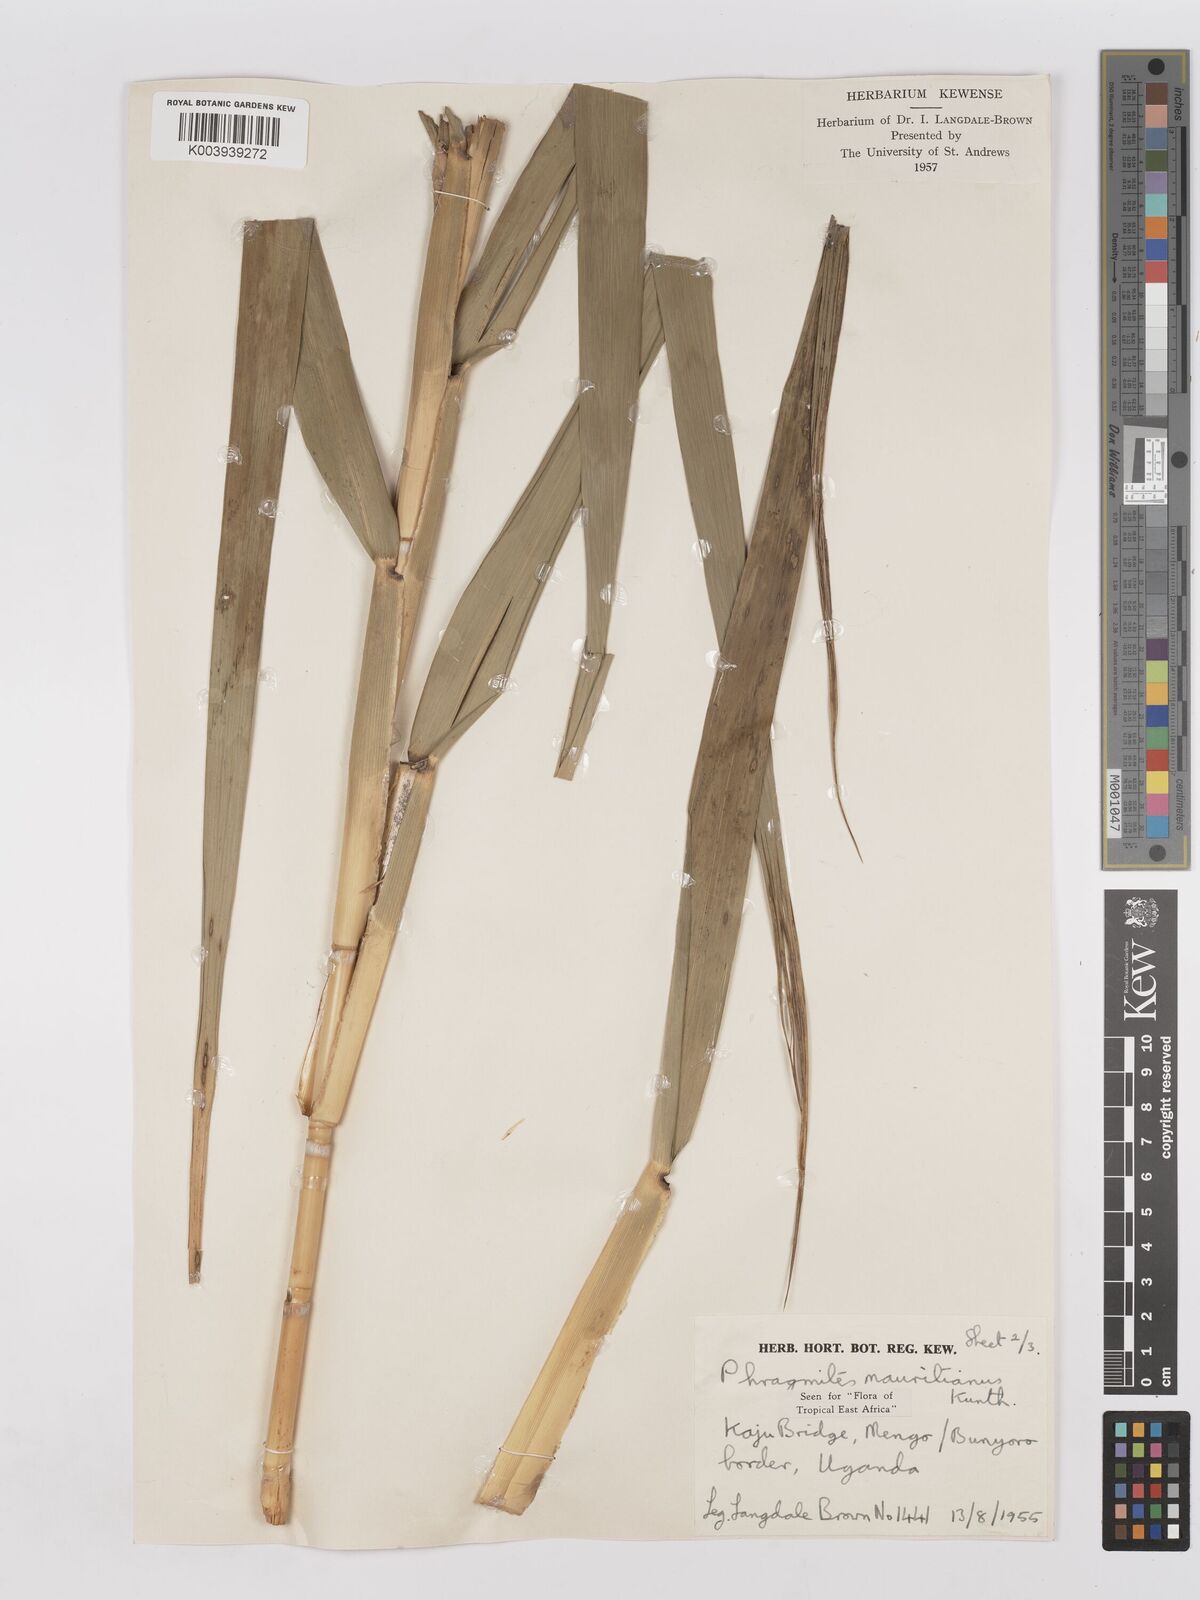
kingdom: Plantae
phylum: Tracheophyta
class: Liliopsida
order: Poales
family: Poaceae
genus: Phragmites
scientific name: Phragmites mauritianus
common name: Reed grass
